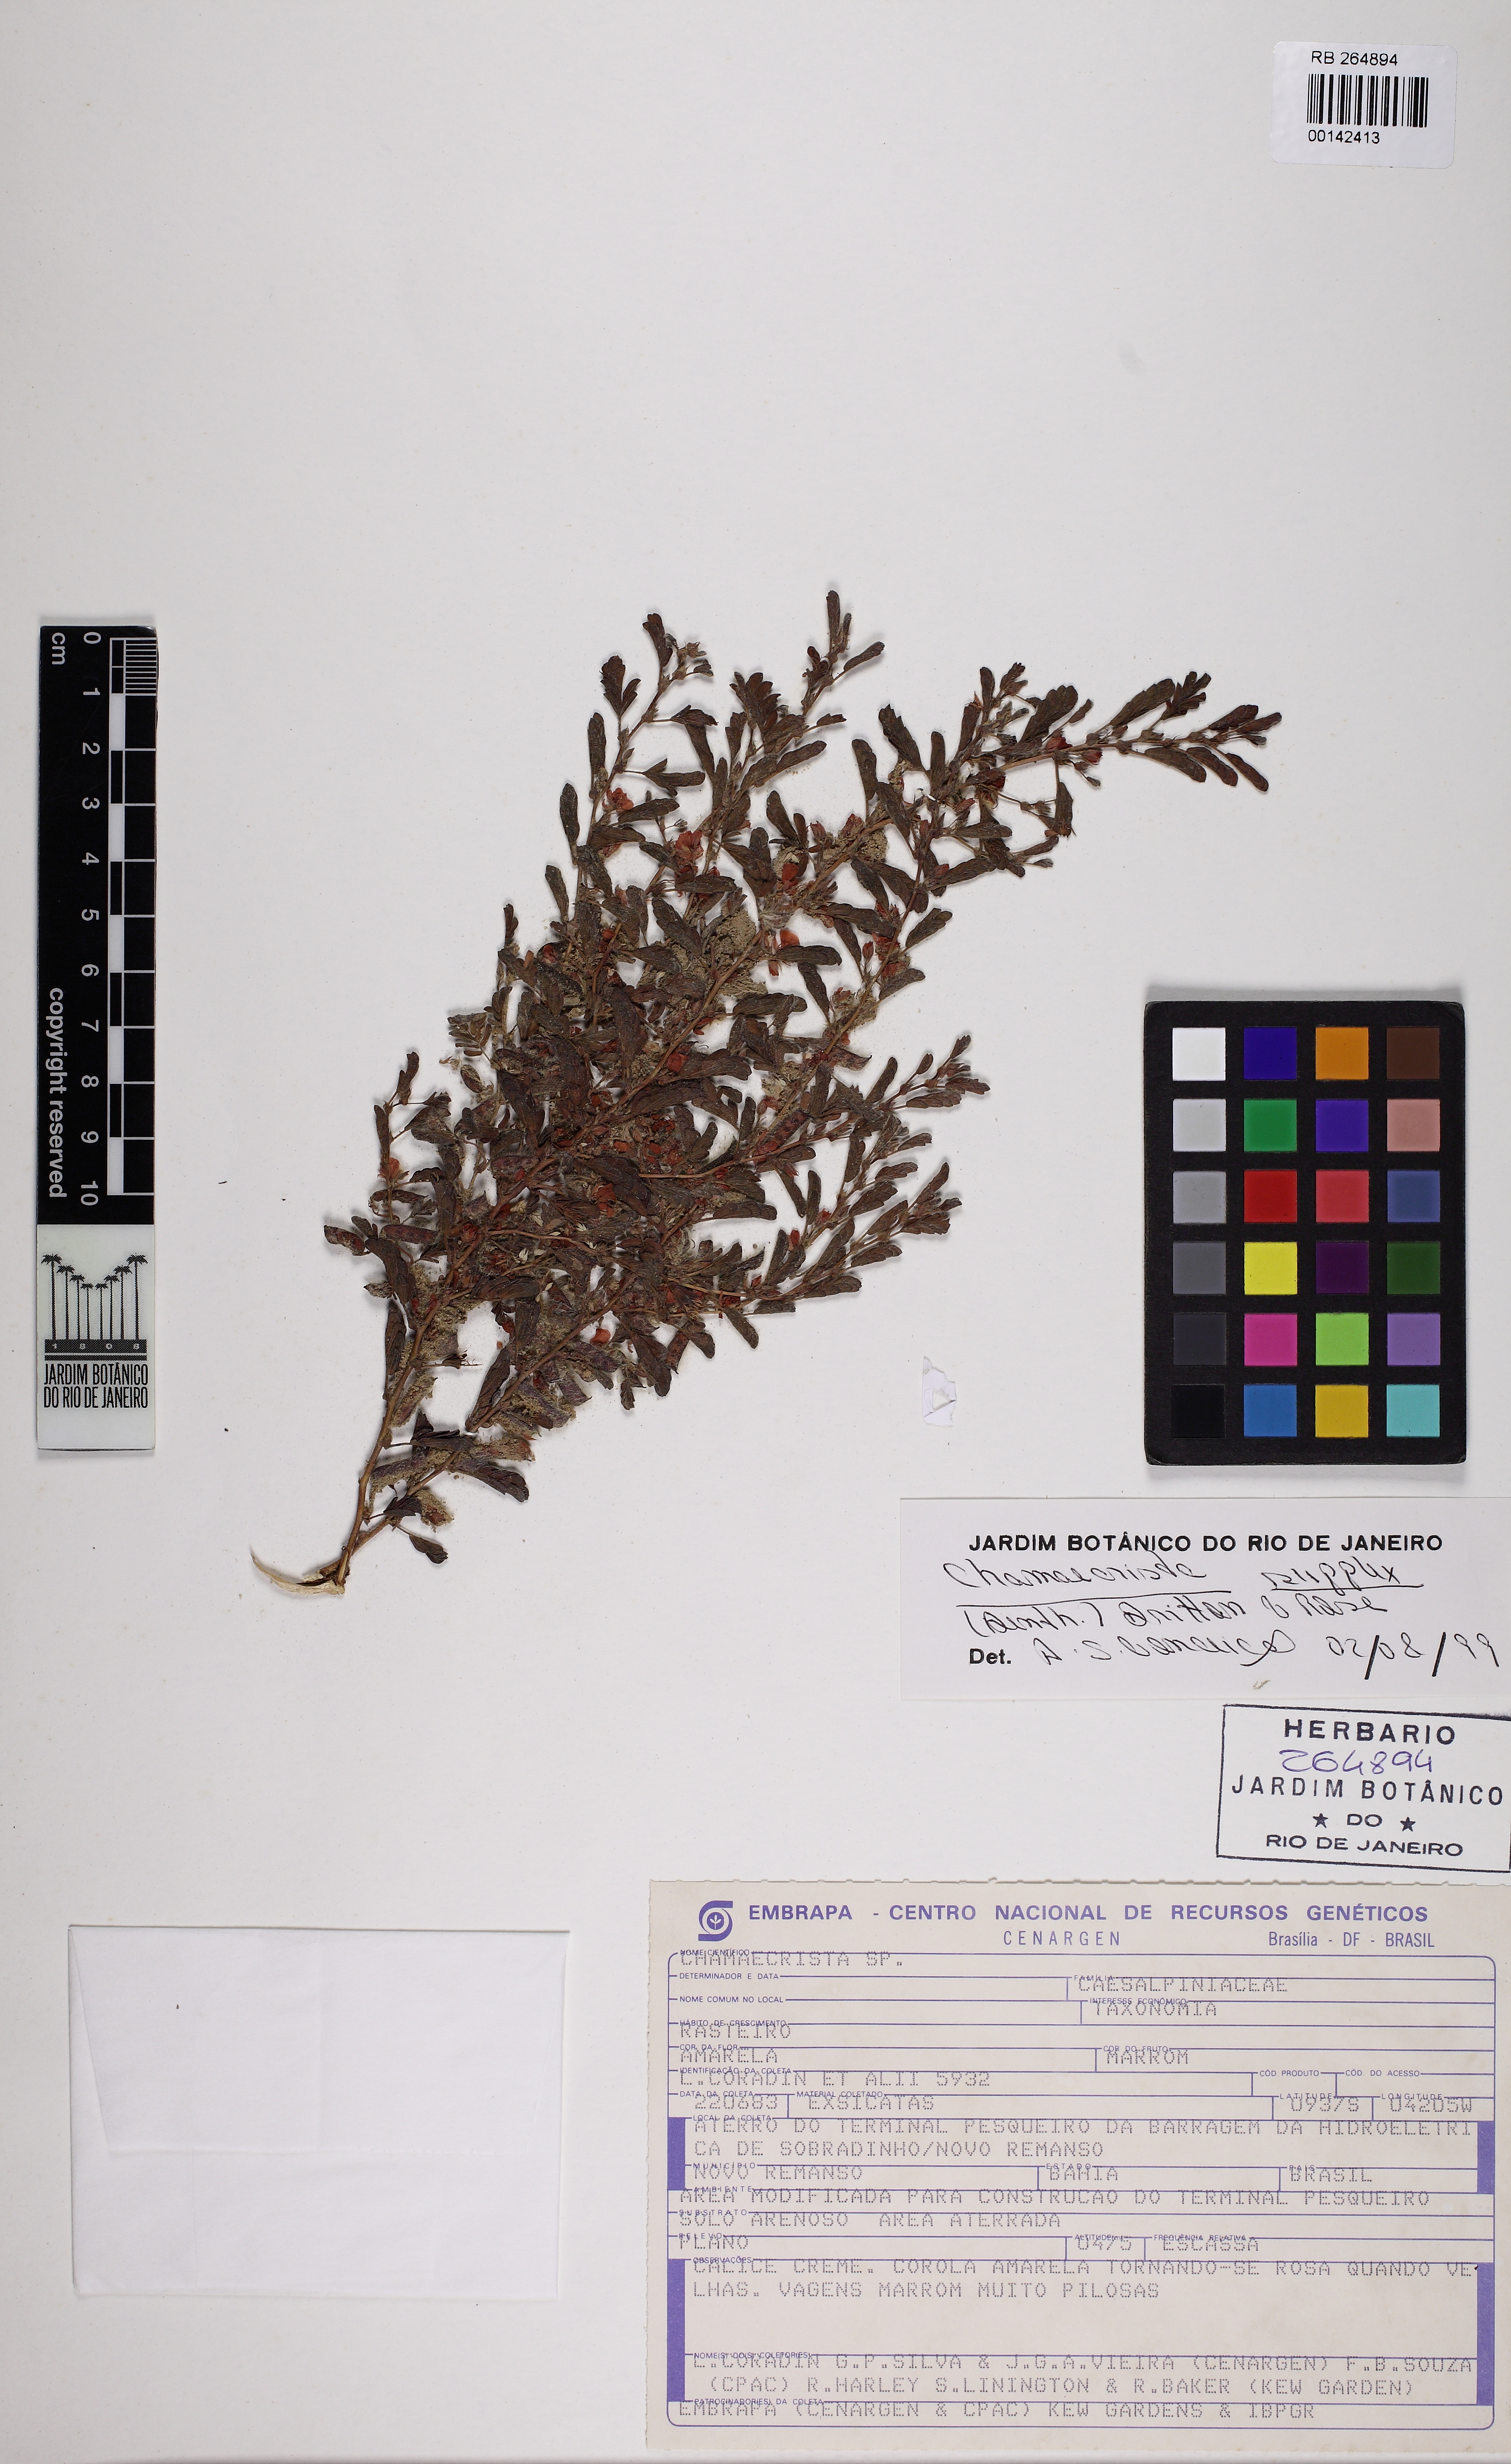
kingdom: Plantae
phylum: Tracheophyta
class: Magnoliopsida
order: Fabales
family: Fabaceae
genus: Chamaecrista
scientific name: Chamaecrista supplex
